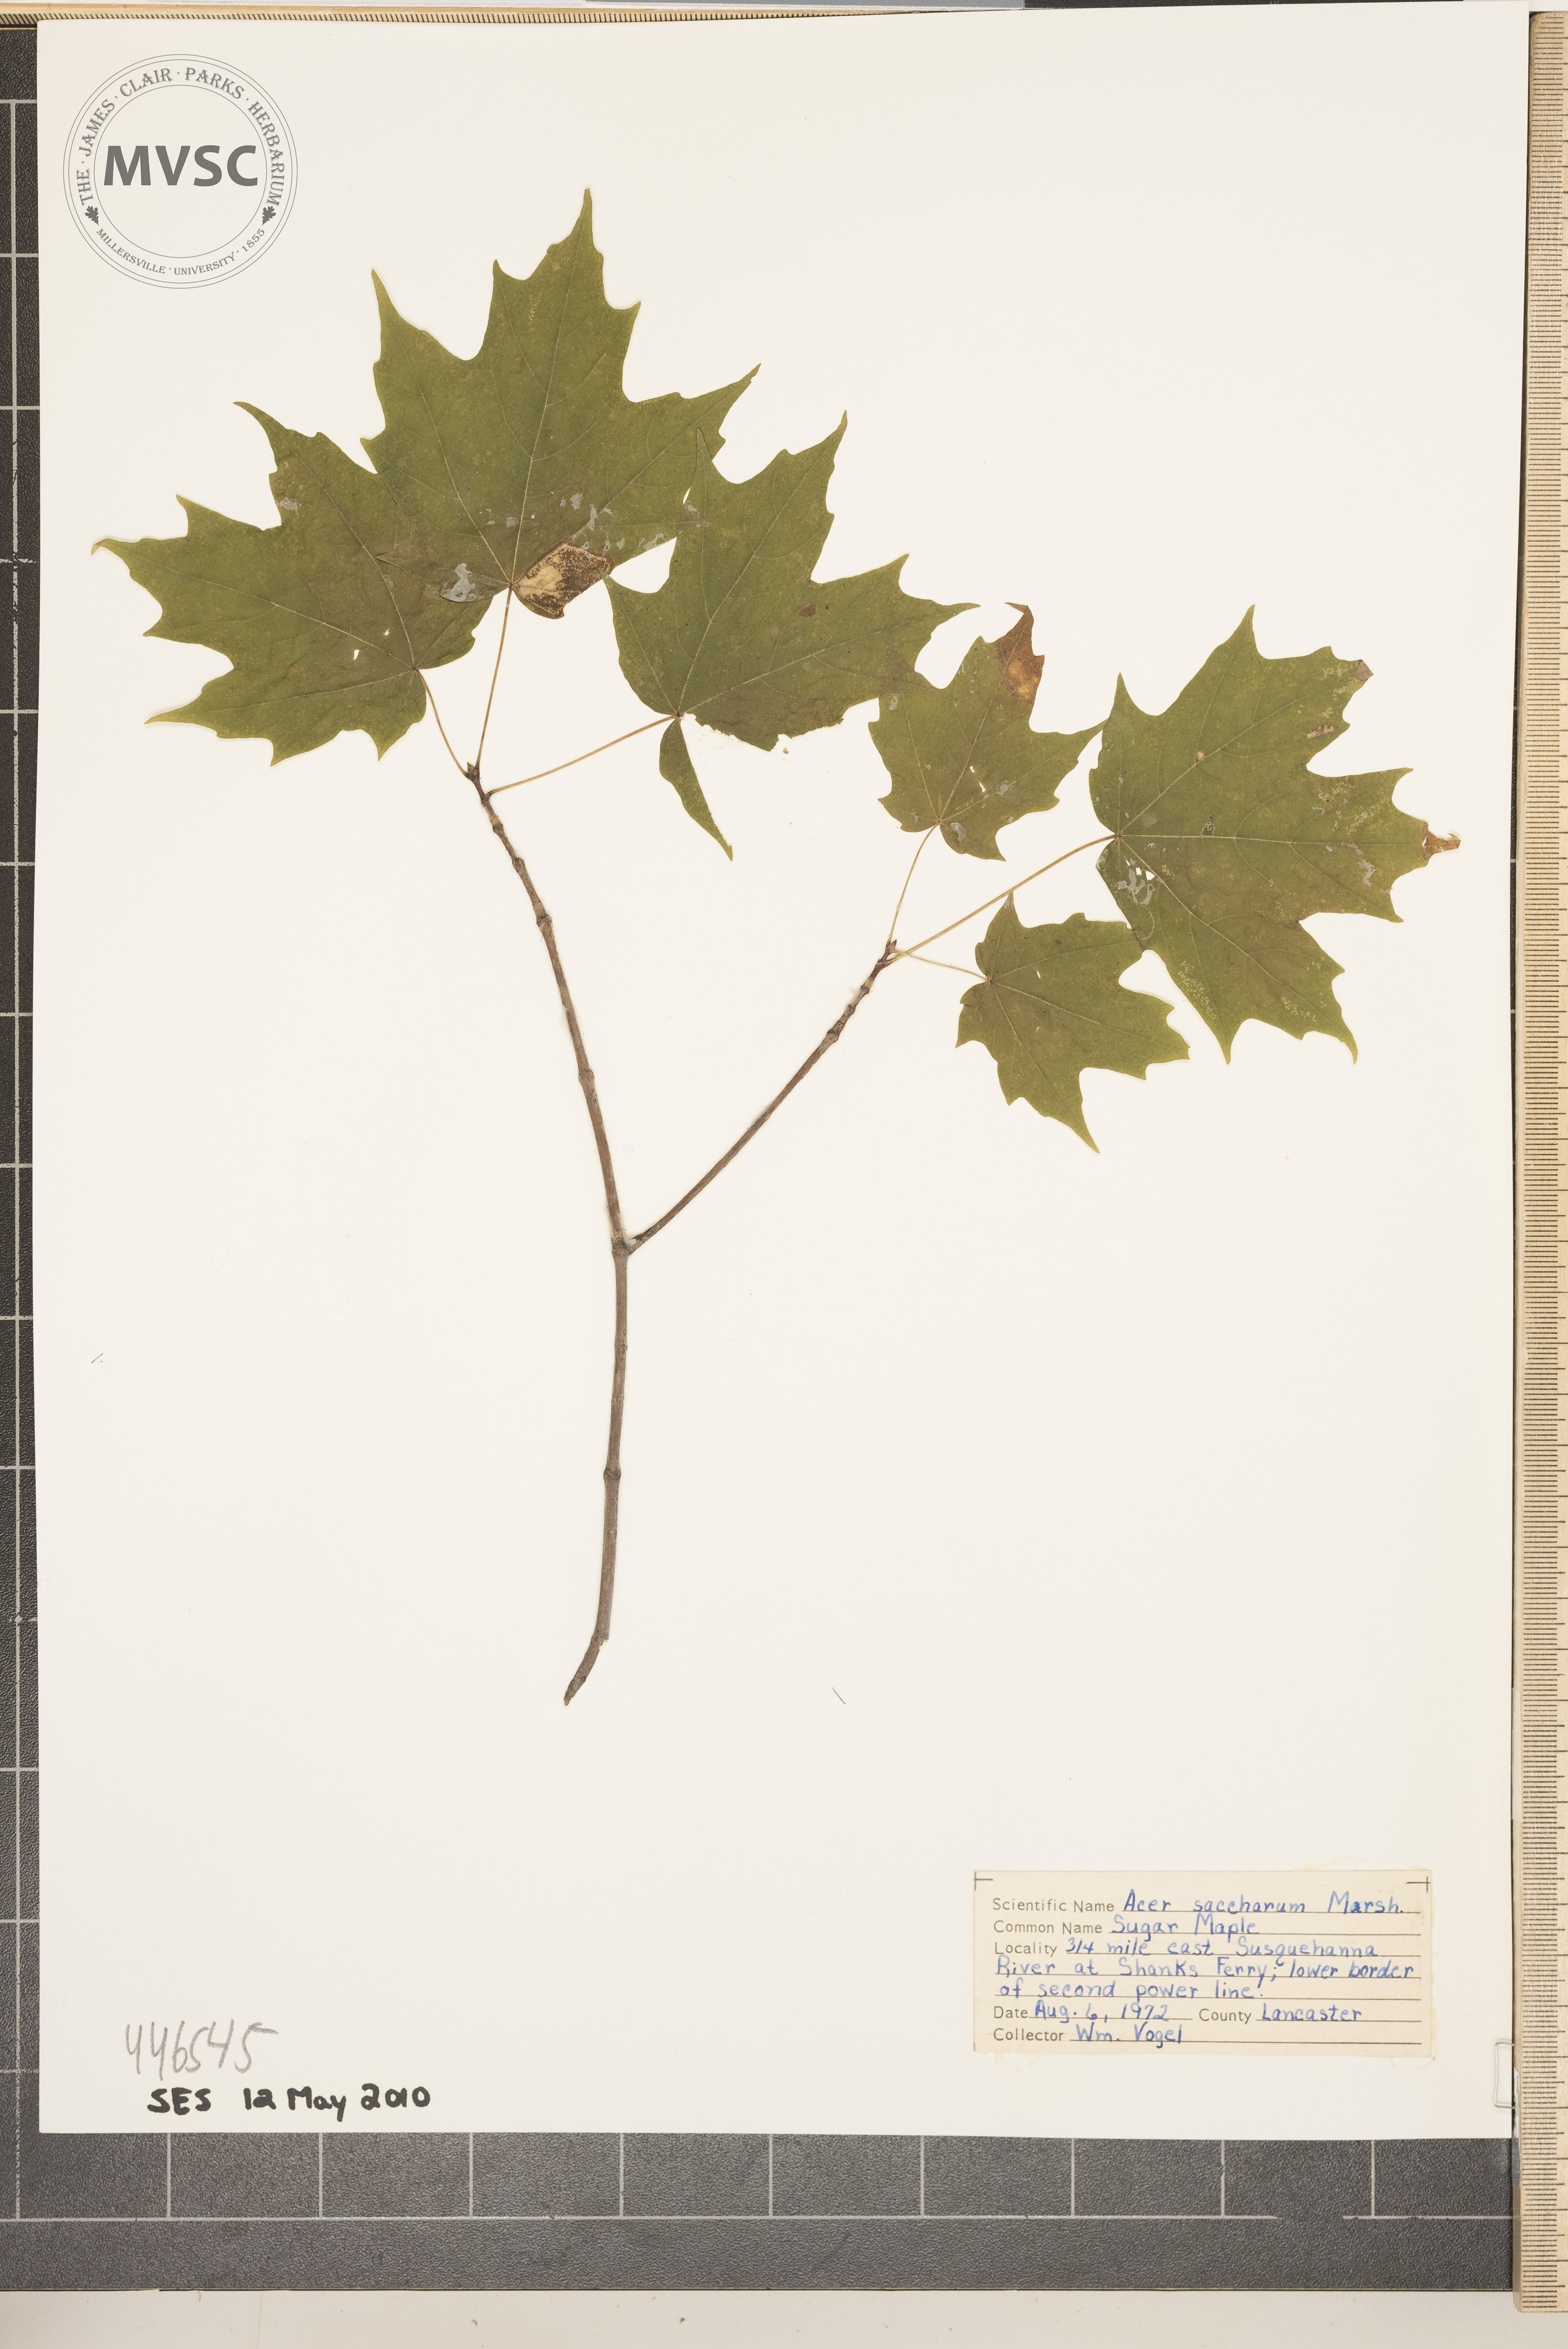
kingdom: Plantae
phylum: Tracheophyta
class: Magnoliopsida
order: Sapindales
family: Sapindaceae
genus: Acer
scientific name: Acer saccharum
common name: sugar maple
